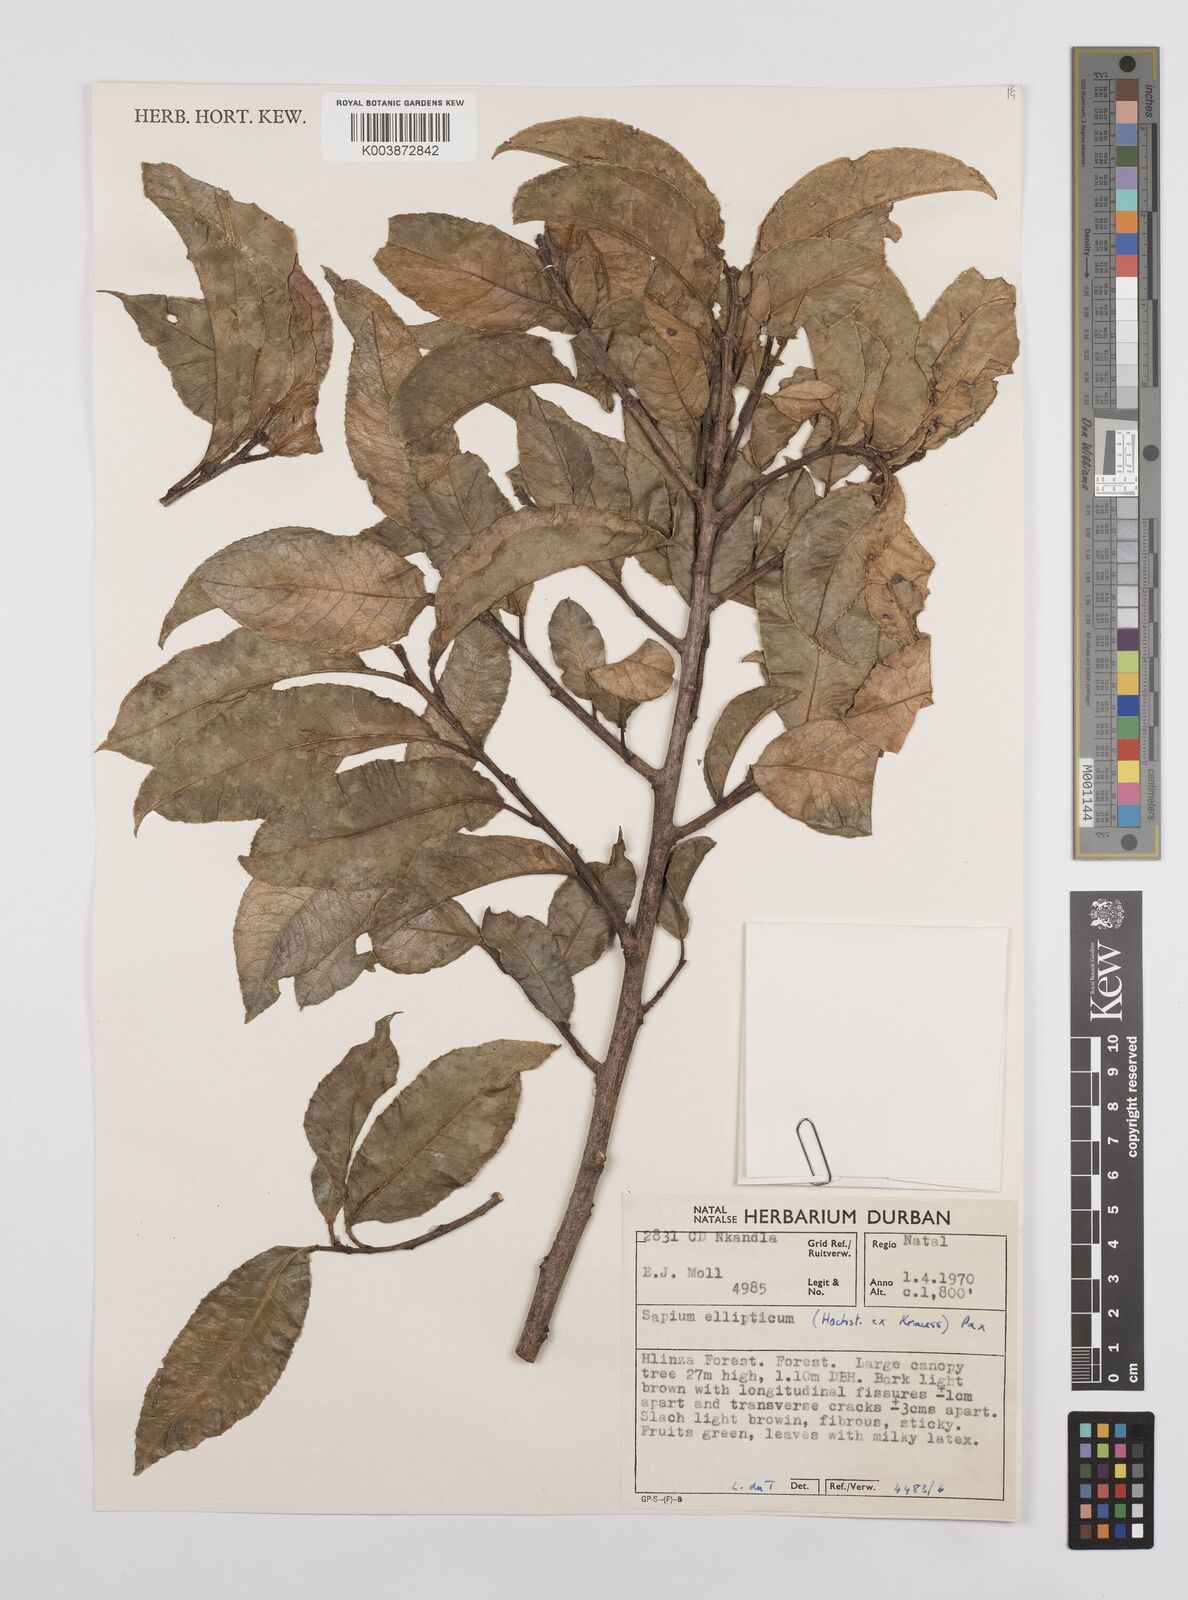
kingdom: Plantae
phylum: Tracheophyta
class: Magnoliopsida
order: Malpighiales
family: Euphorbiaceae
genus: Sclerocroton
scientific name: Sclerocroton integerrimus
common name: Duiker berry
